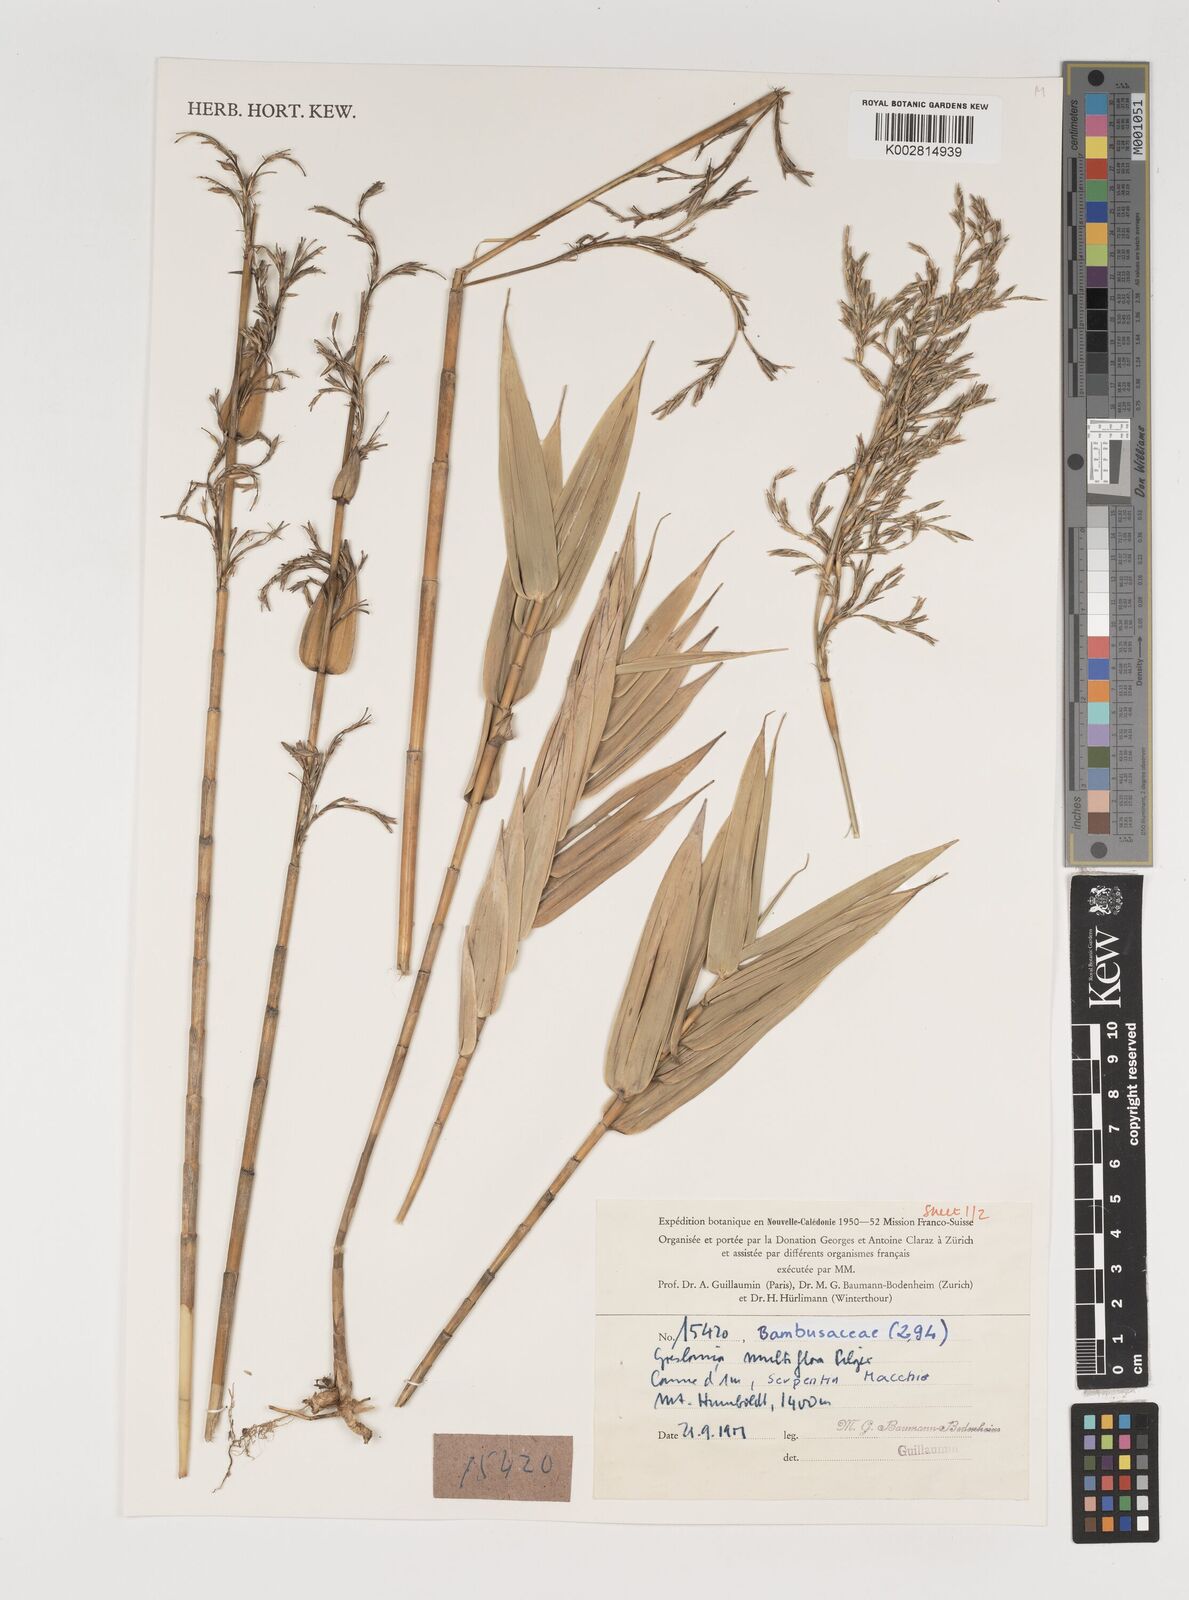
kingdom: Plantae
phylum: Tracheophyta
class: Liliopsida
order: Poales
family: Poaceae
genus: Greslania
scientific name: Greslania circinata
